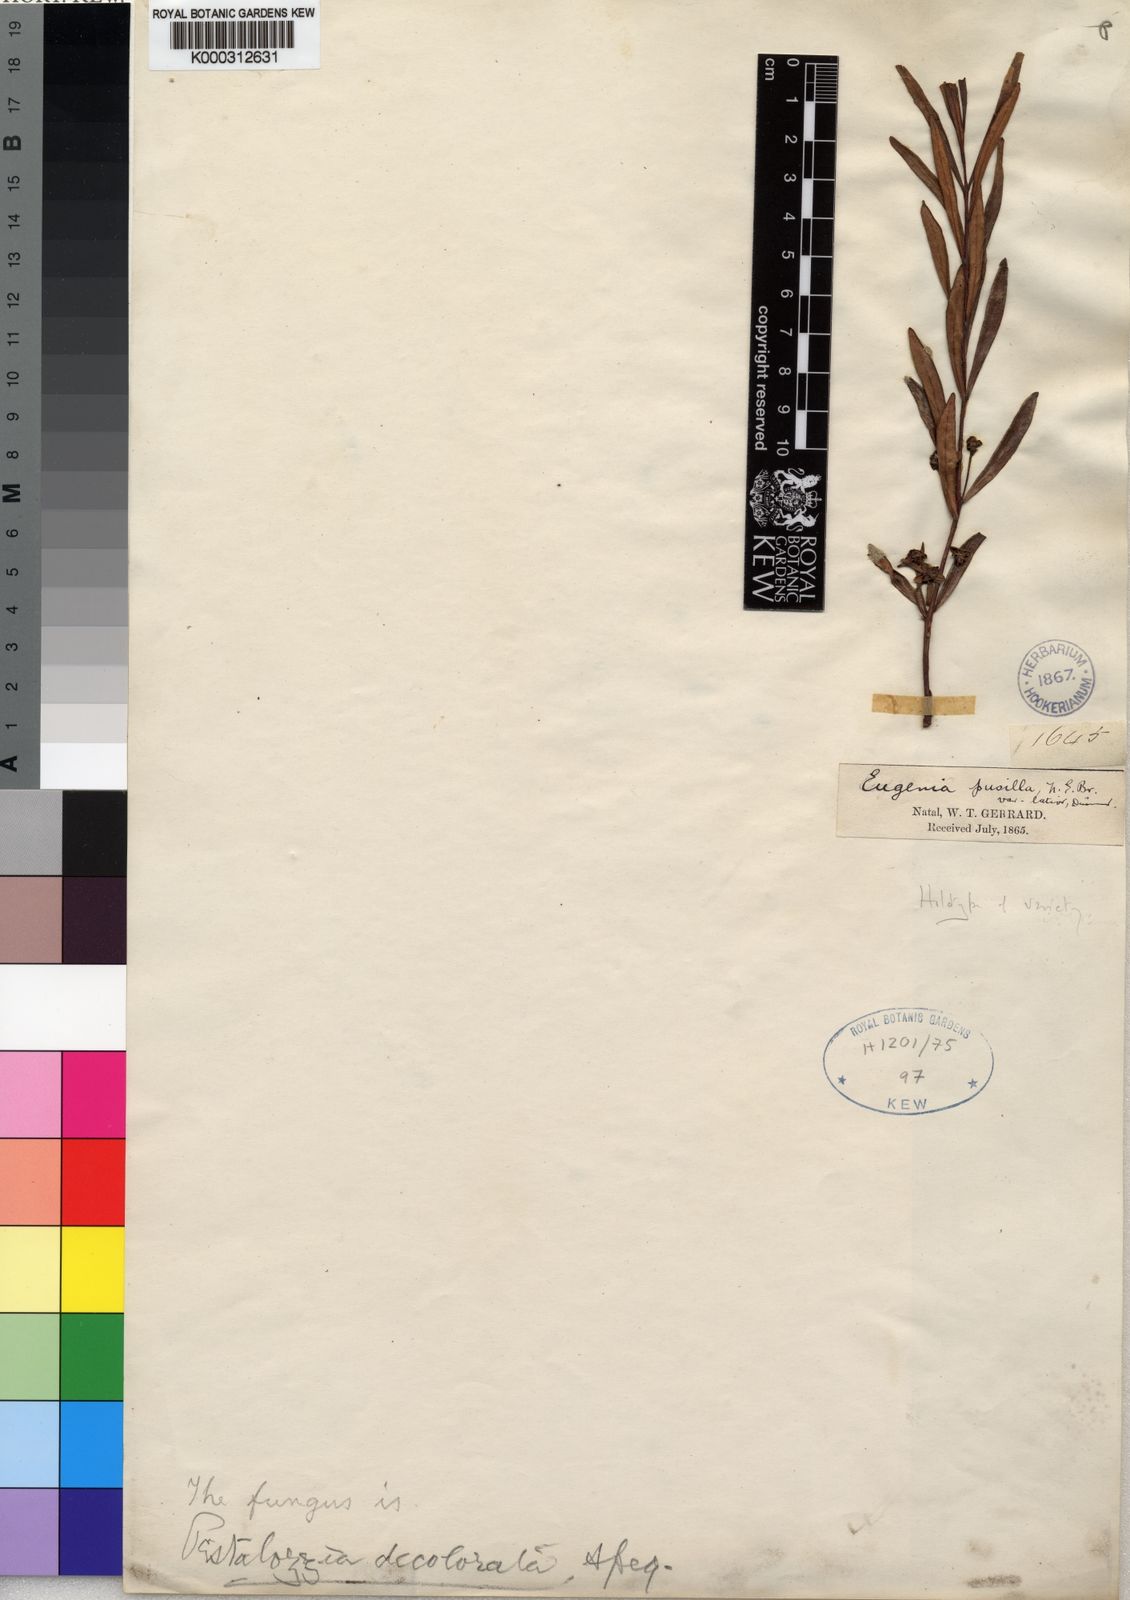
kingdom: Plantae
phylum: Tracheophyta
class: Magnoliopsida
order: Myrtales
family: Myrtaceae
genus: Eugenia
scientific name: Eugenia pusilla
